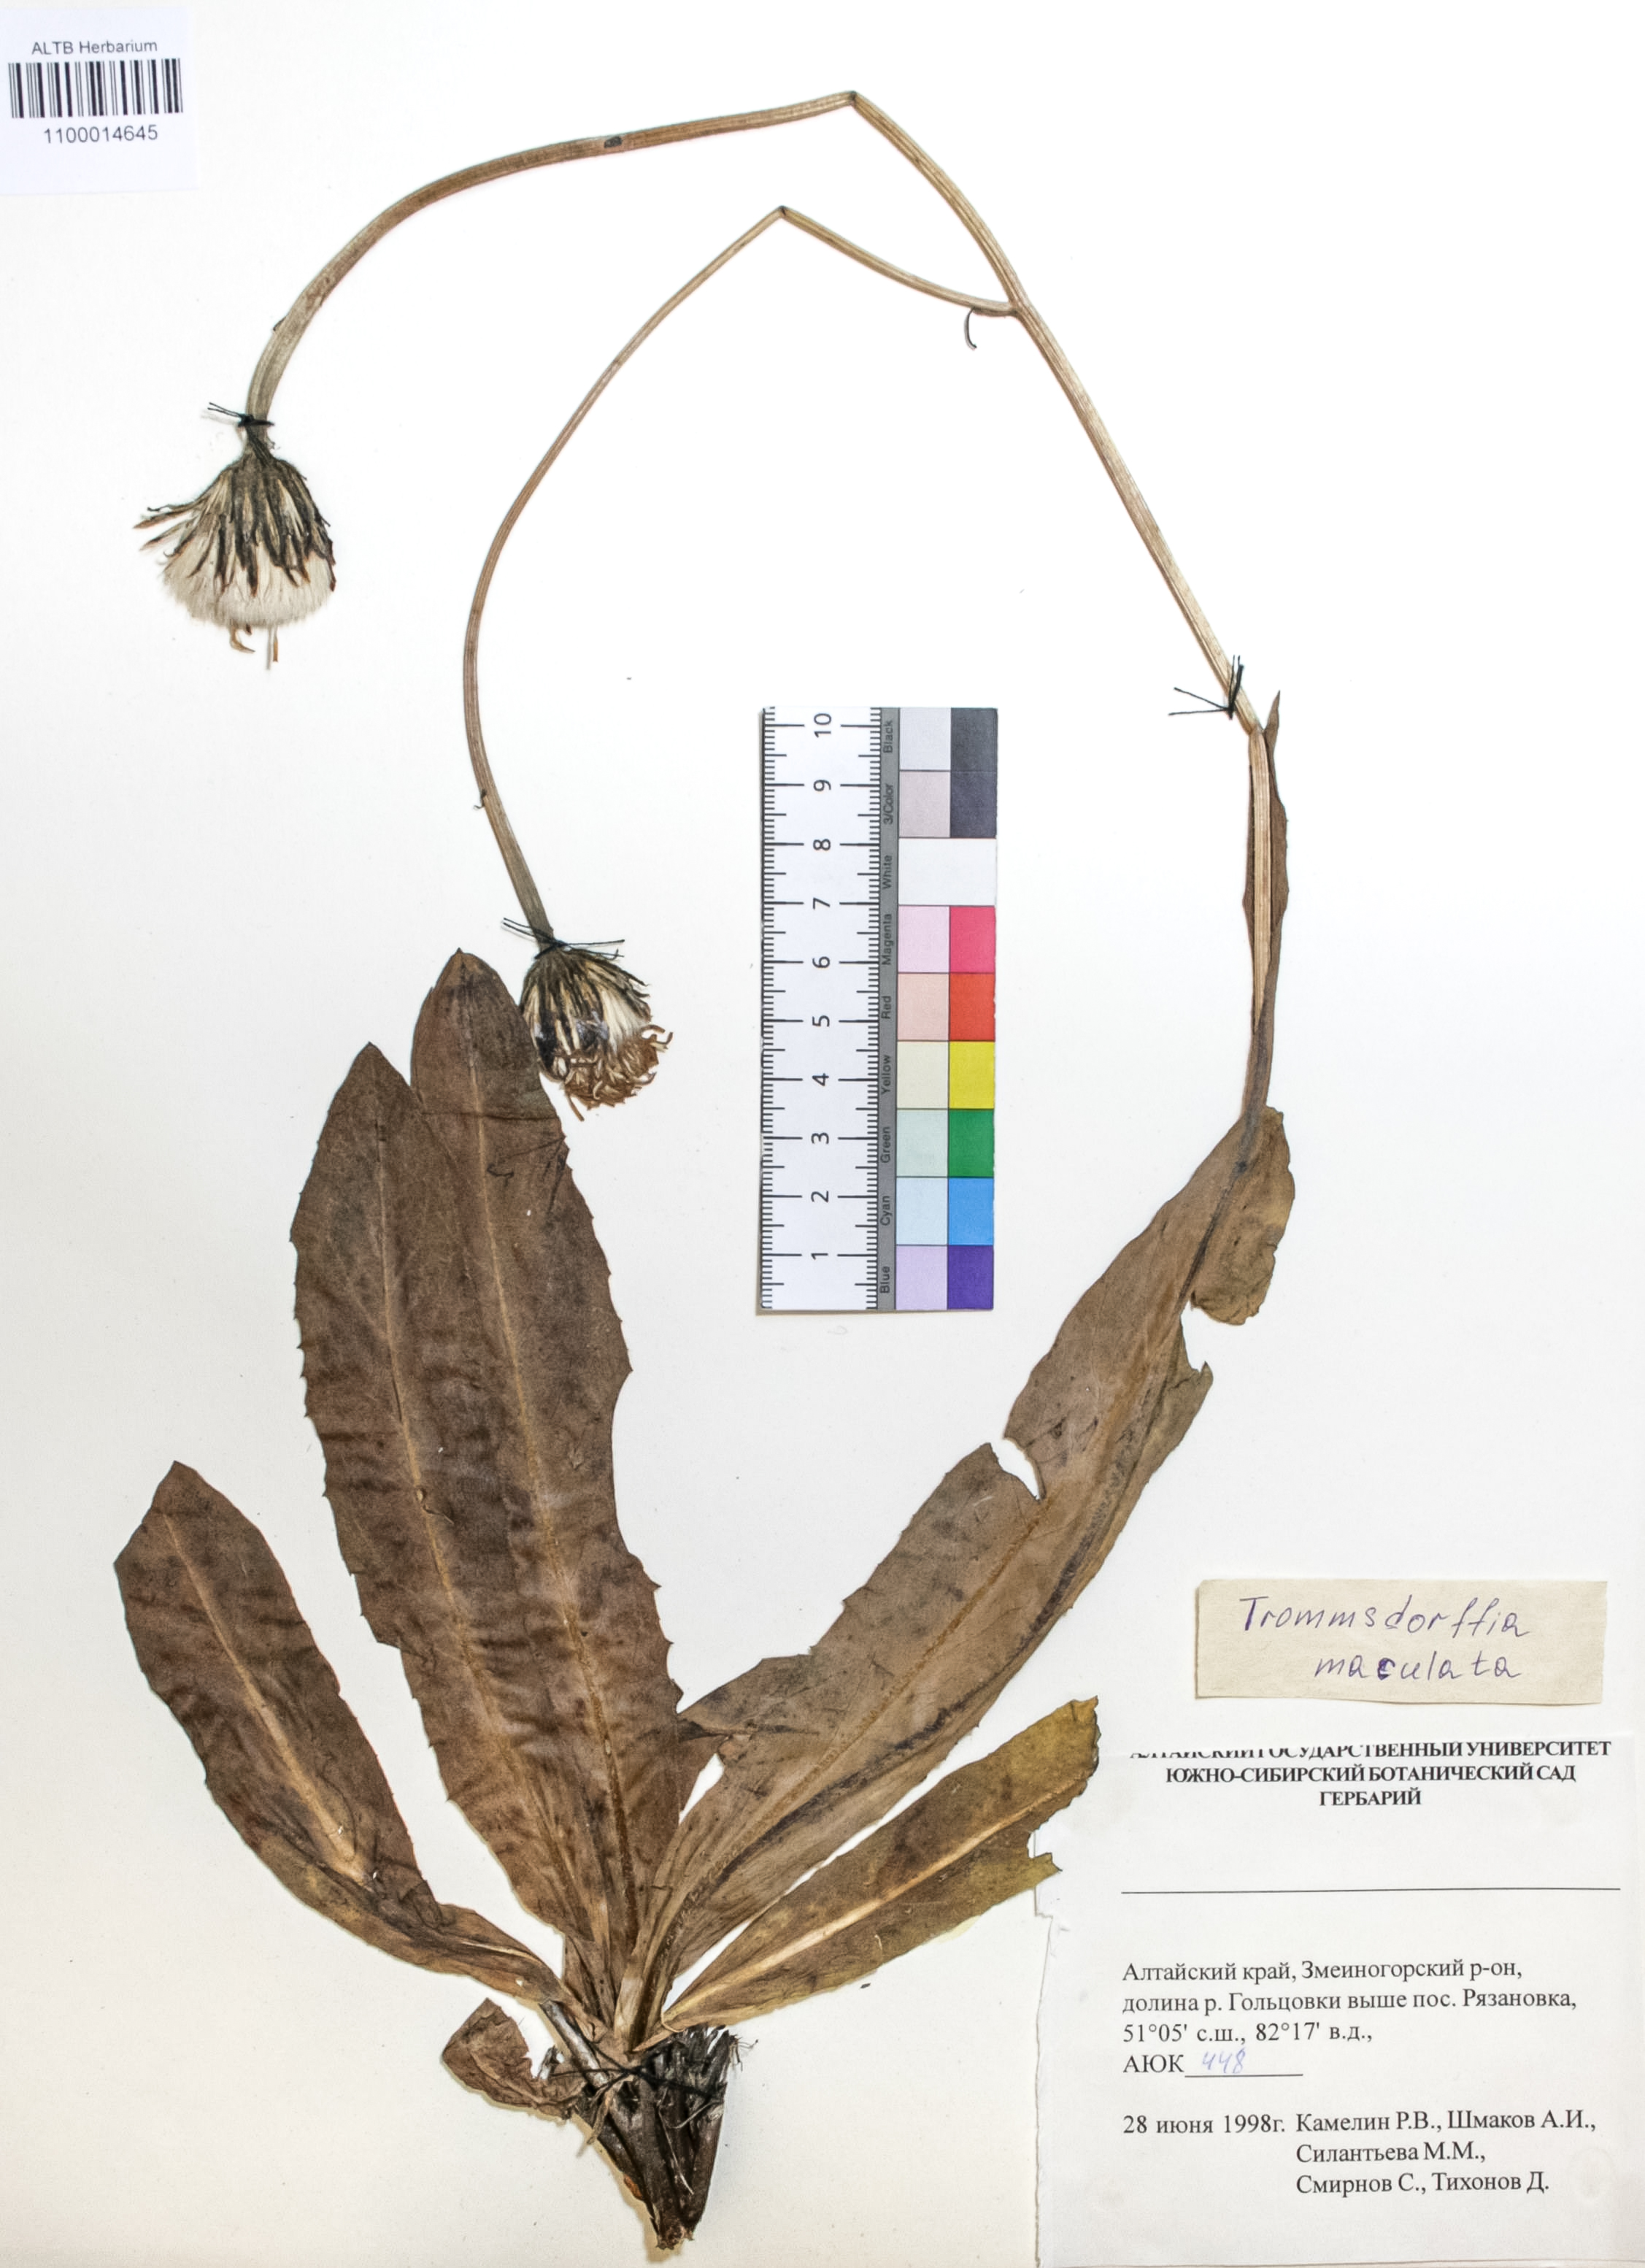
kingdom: Plantae
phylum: Tracheophyta
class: Magnoliopsida
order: Asterales
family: Asteraceae
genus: Trommsdorffia
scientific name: Trommsdorffia maculata
